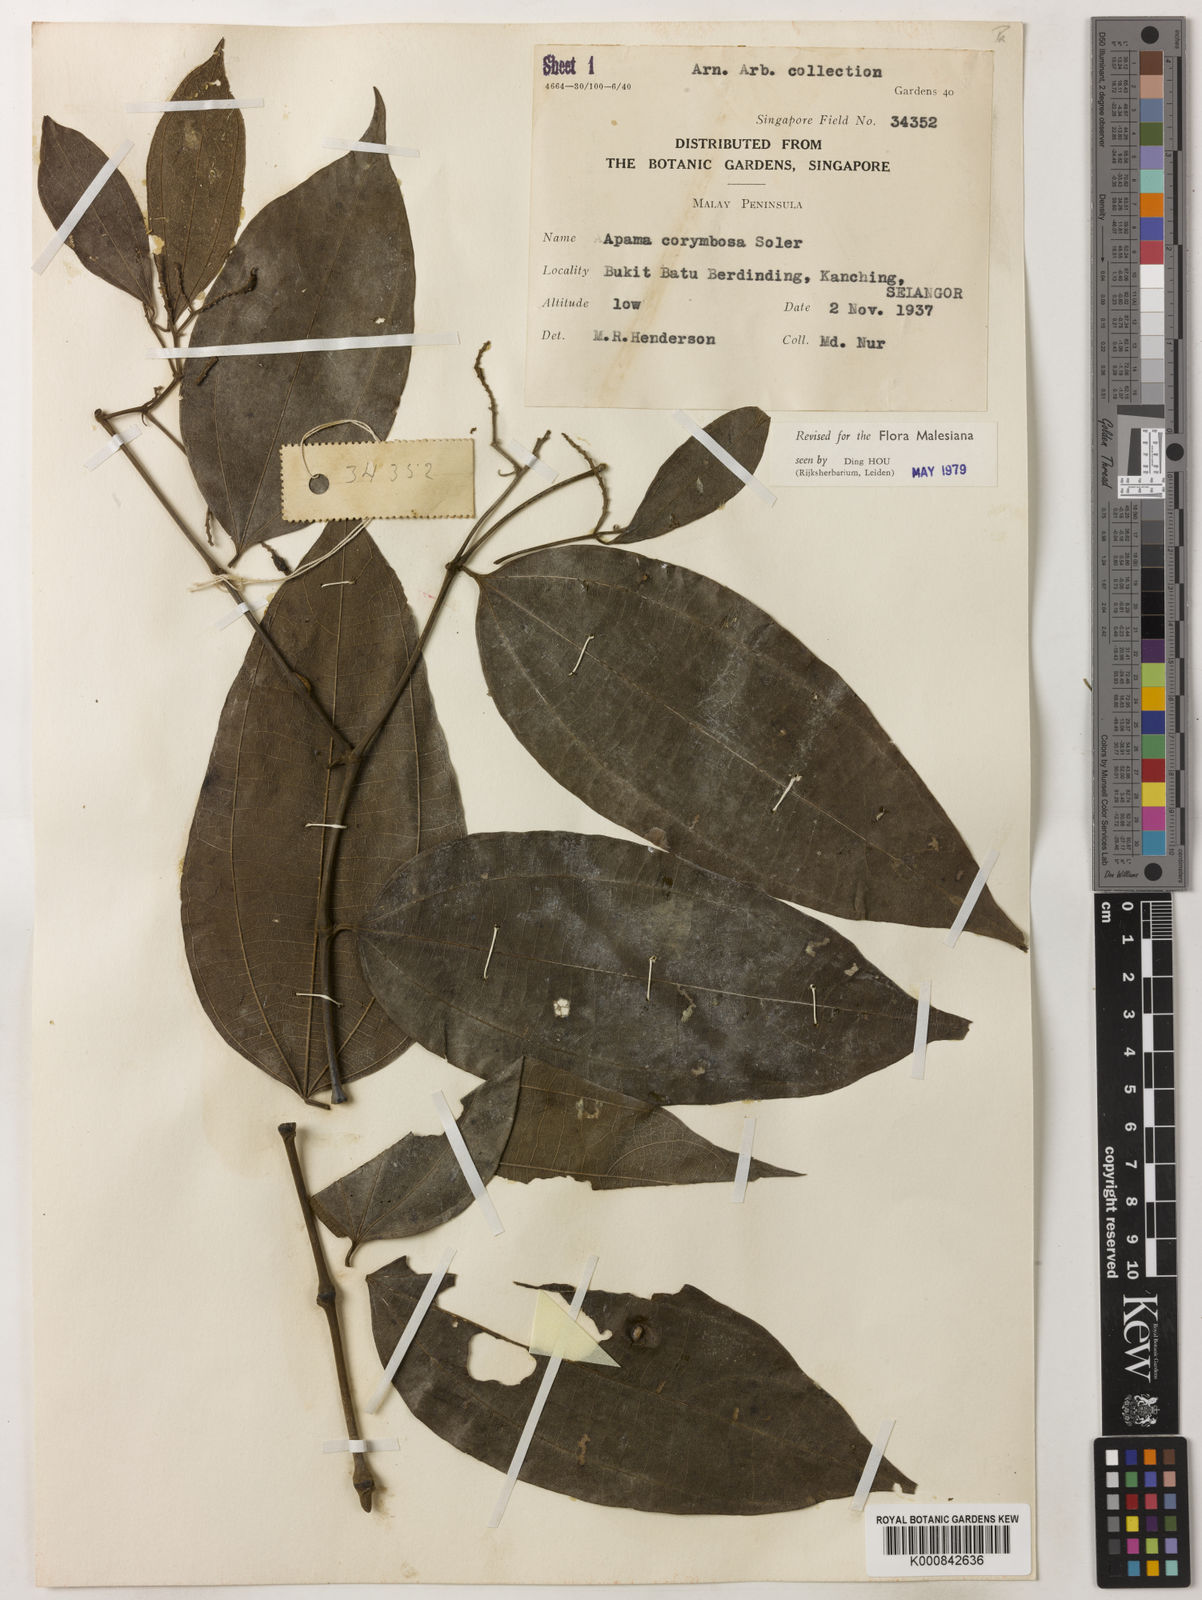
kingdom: Plantae
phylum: Tracheophyta
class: Magnoliopsida
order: Piperales
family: Aristolochiaceae
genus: Thottea
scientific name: Thottea piperiformis
